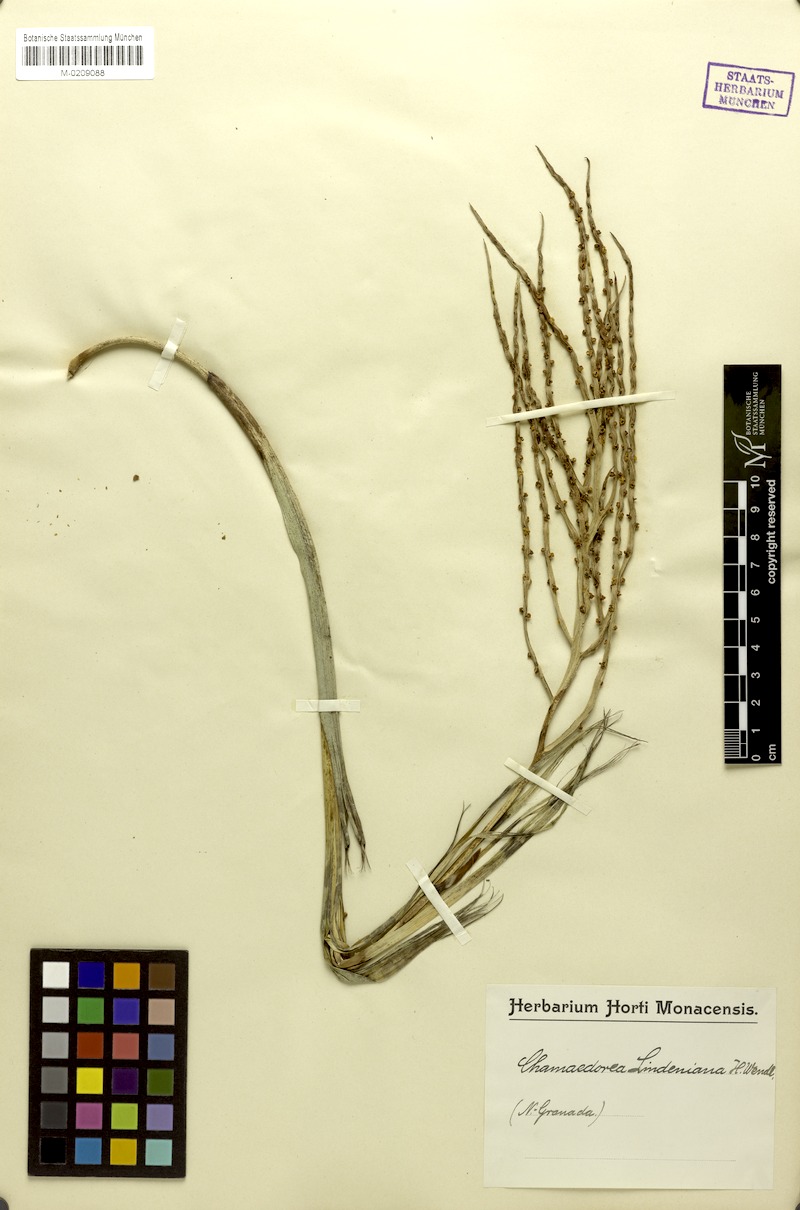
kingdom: Plantae
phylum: Tracheophyta
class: Liliopsida
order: Arecales
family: Arecaceae
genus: Chamaedorea
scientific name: Chamaedorea linearis
